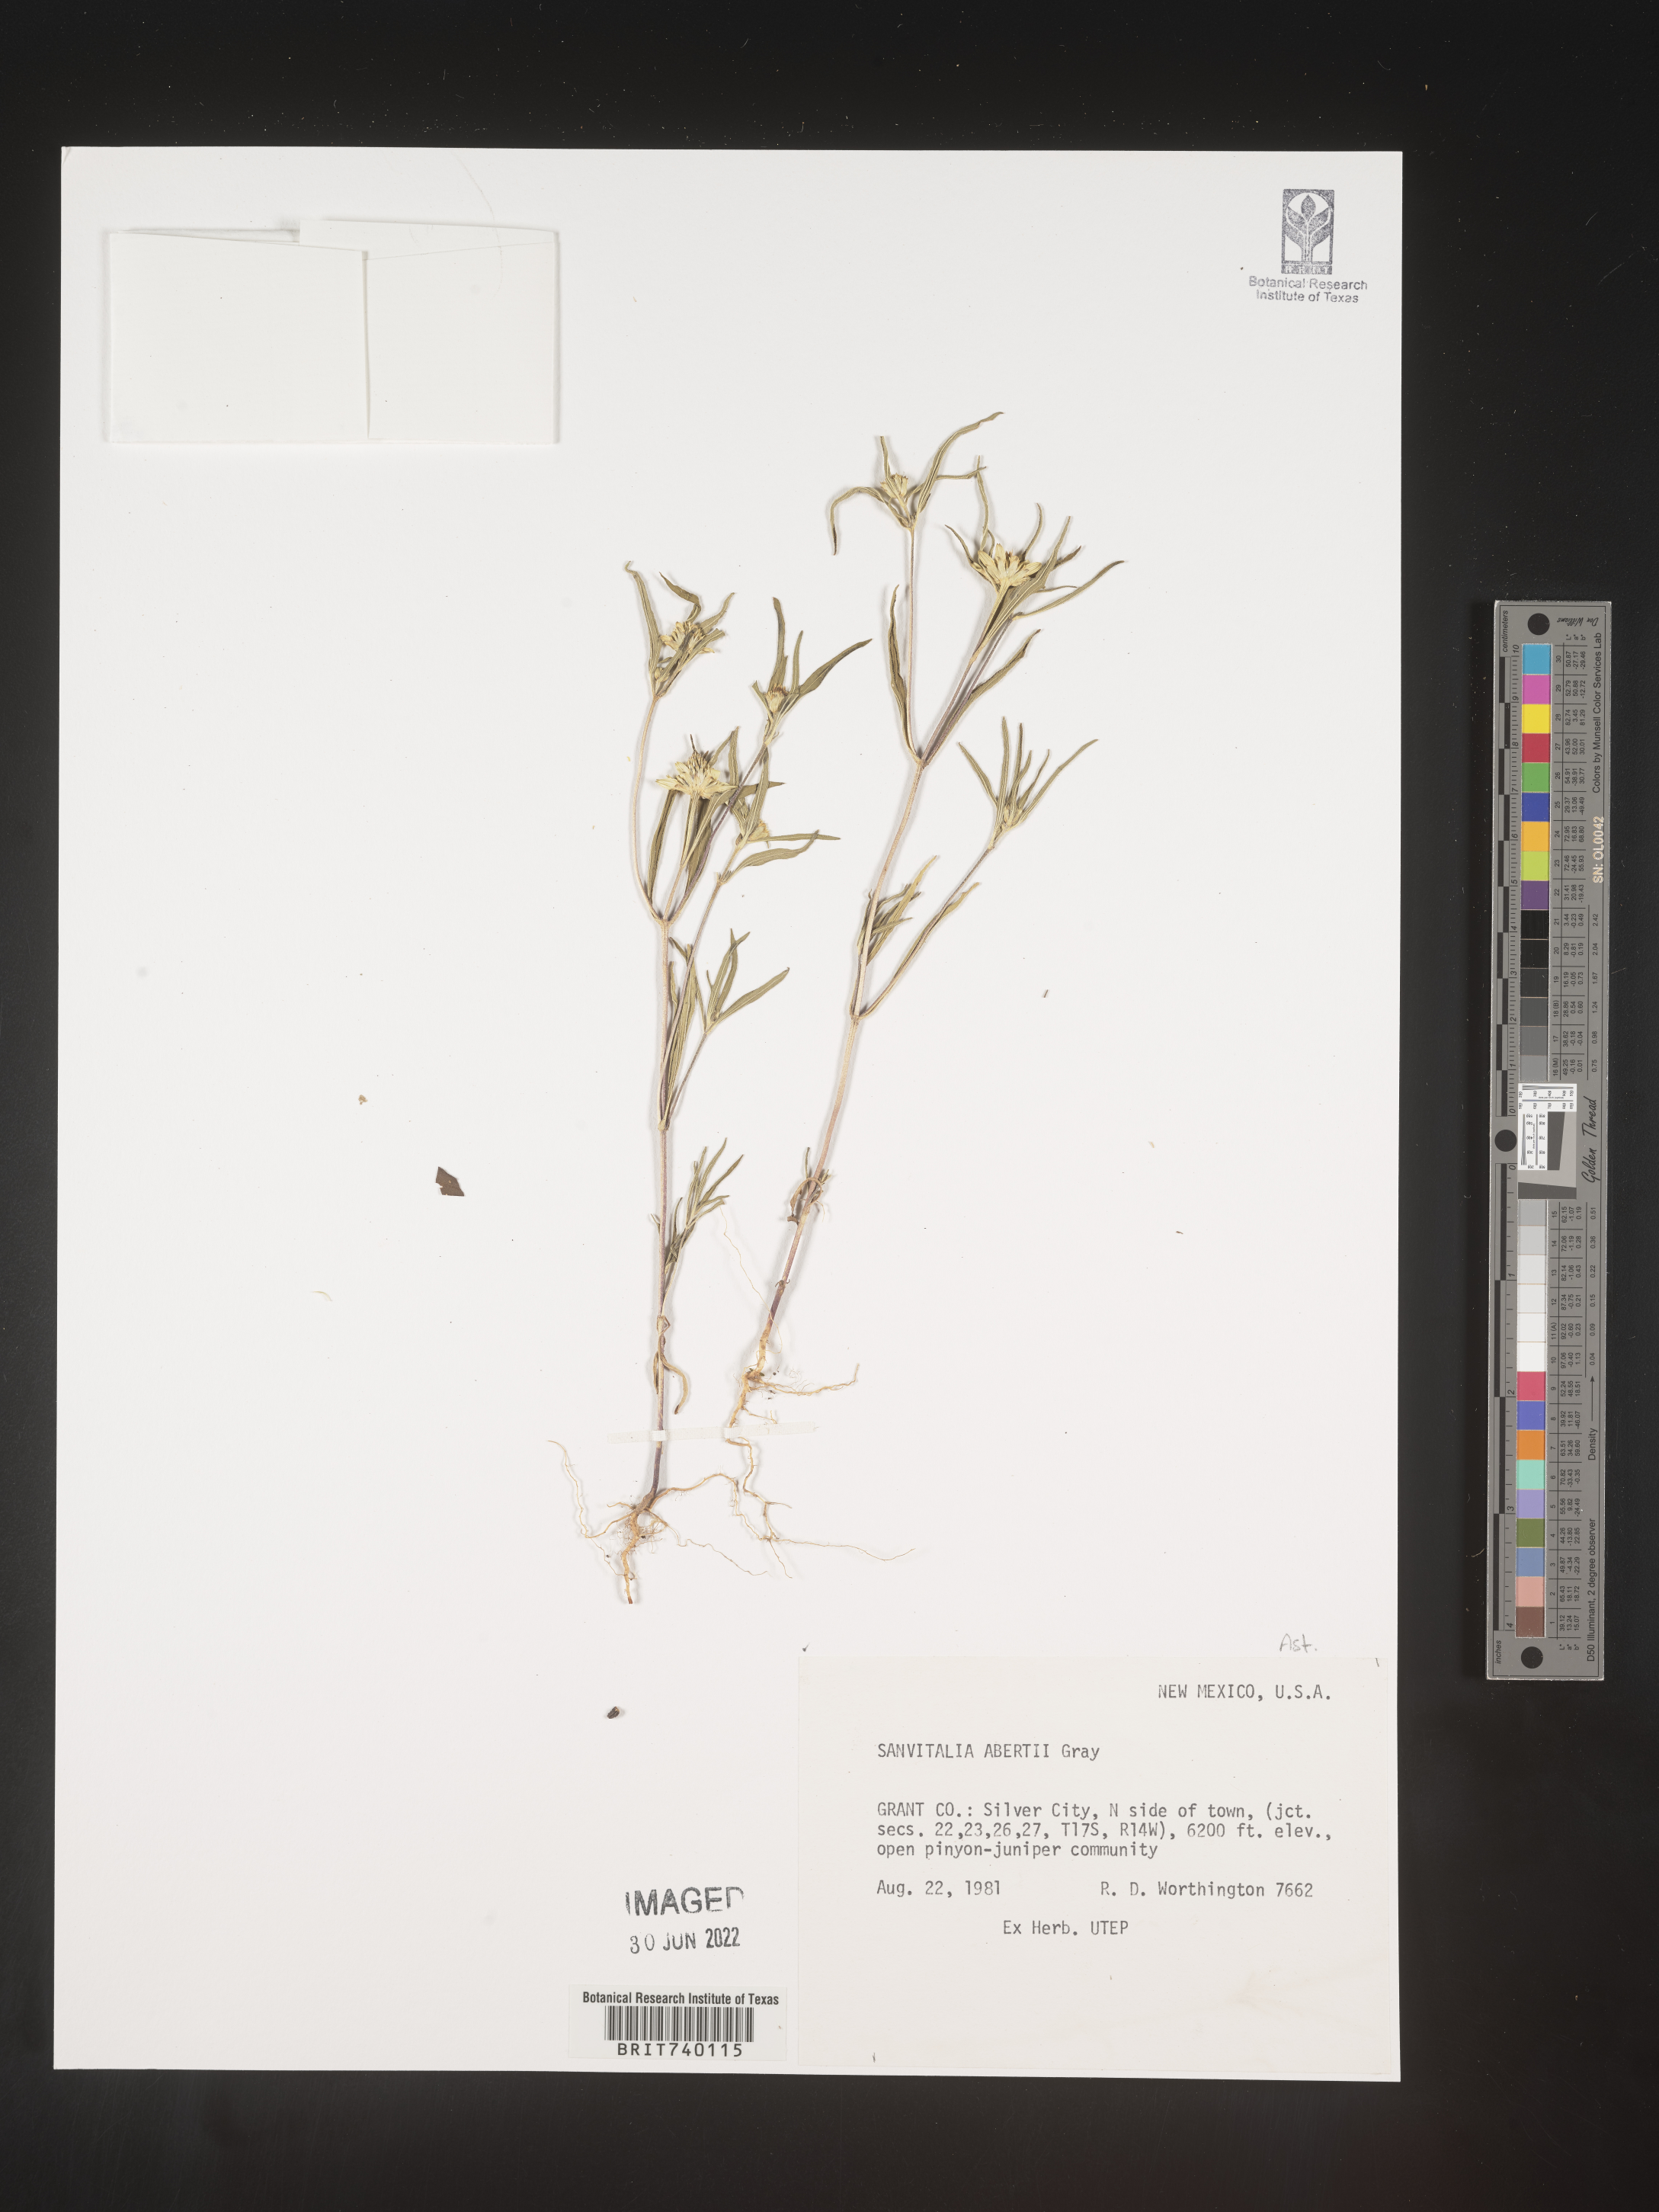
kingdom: Plantae
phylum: Tracheophyta
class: Magnoliopsida
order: Asterales
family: Asteraceae
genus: Sanvitalia
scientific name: Sanvitalia
